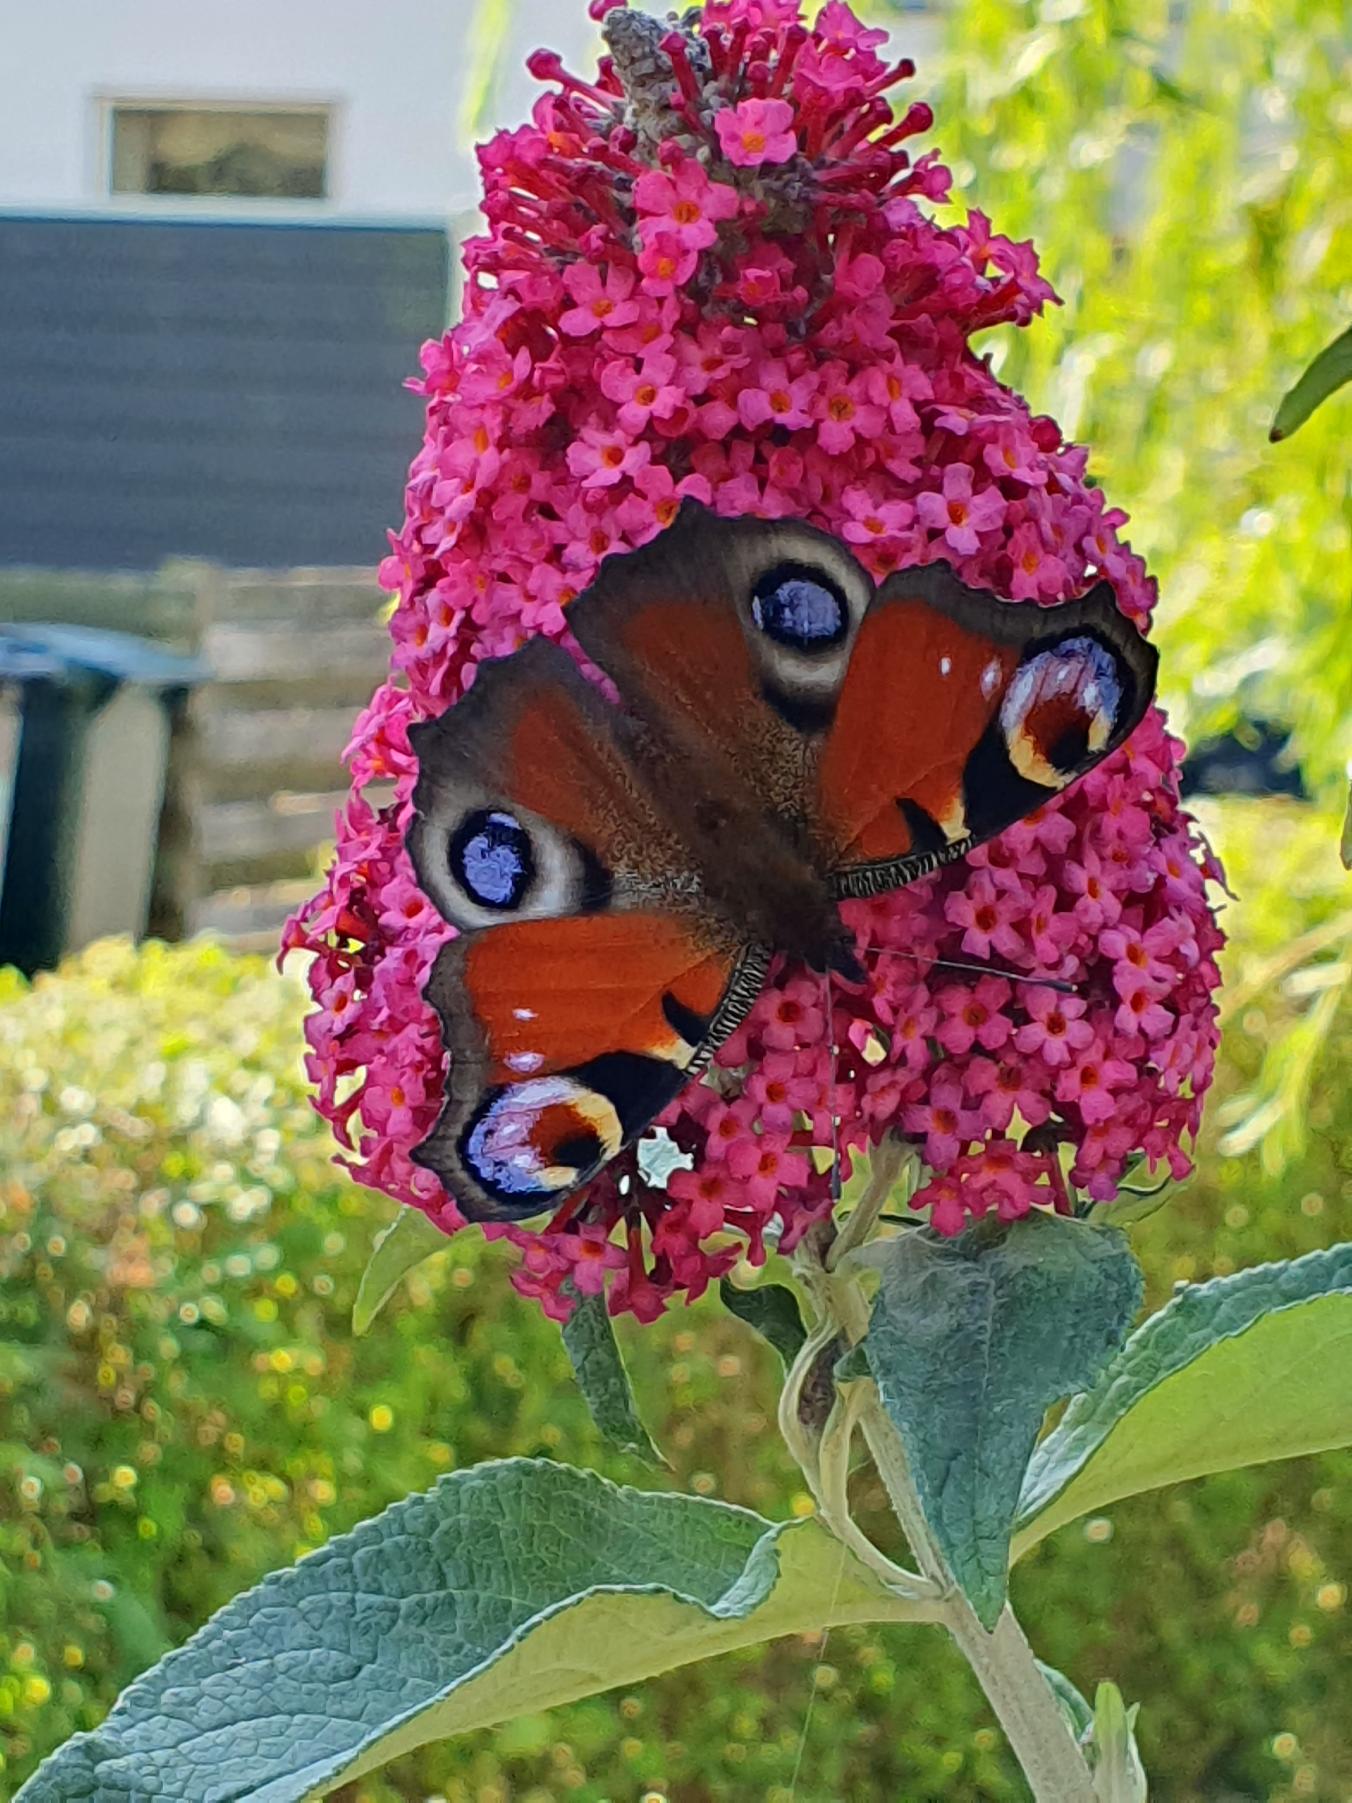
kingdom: Animalia
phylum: Arthropoda
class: Insecta
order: Lepidoptera
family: Nymphalidae
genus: Aglais
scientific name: Aglais io
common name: Dagpåfugleøje
